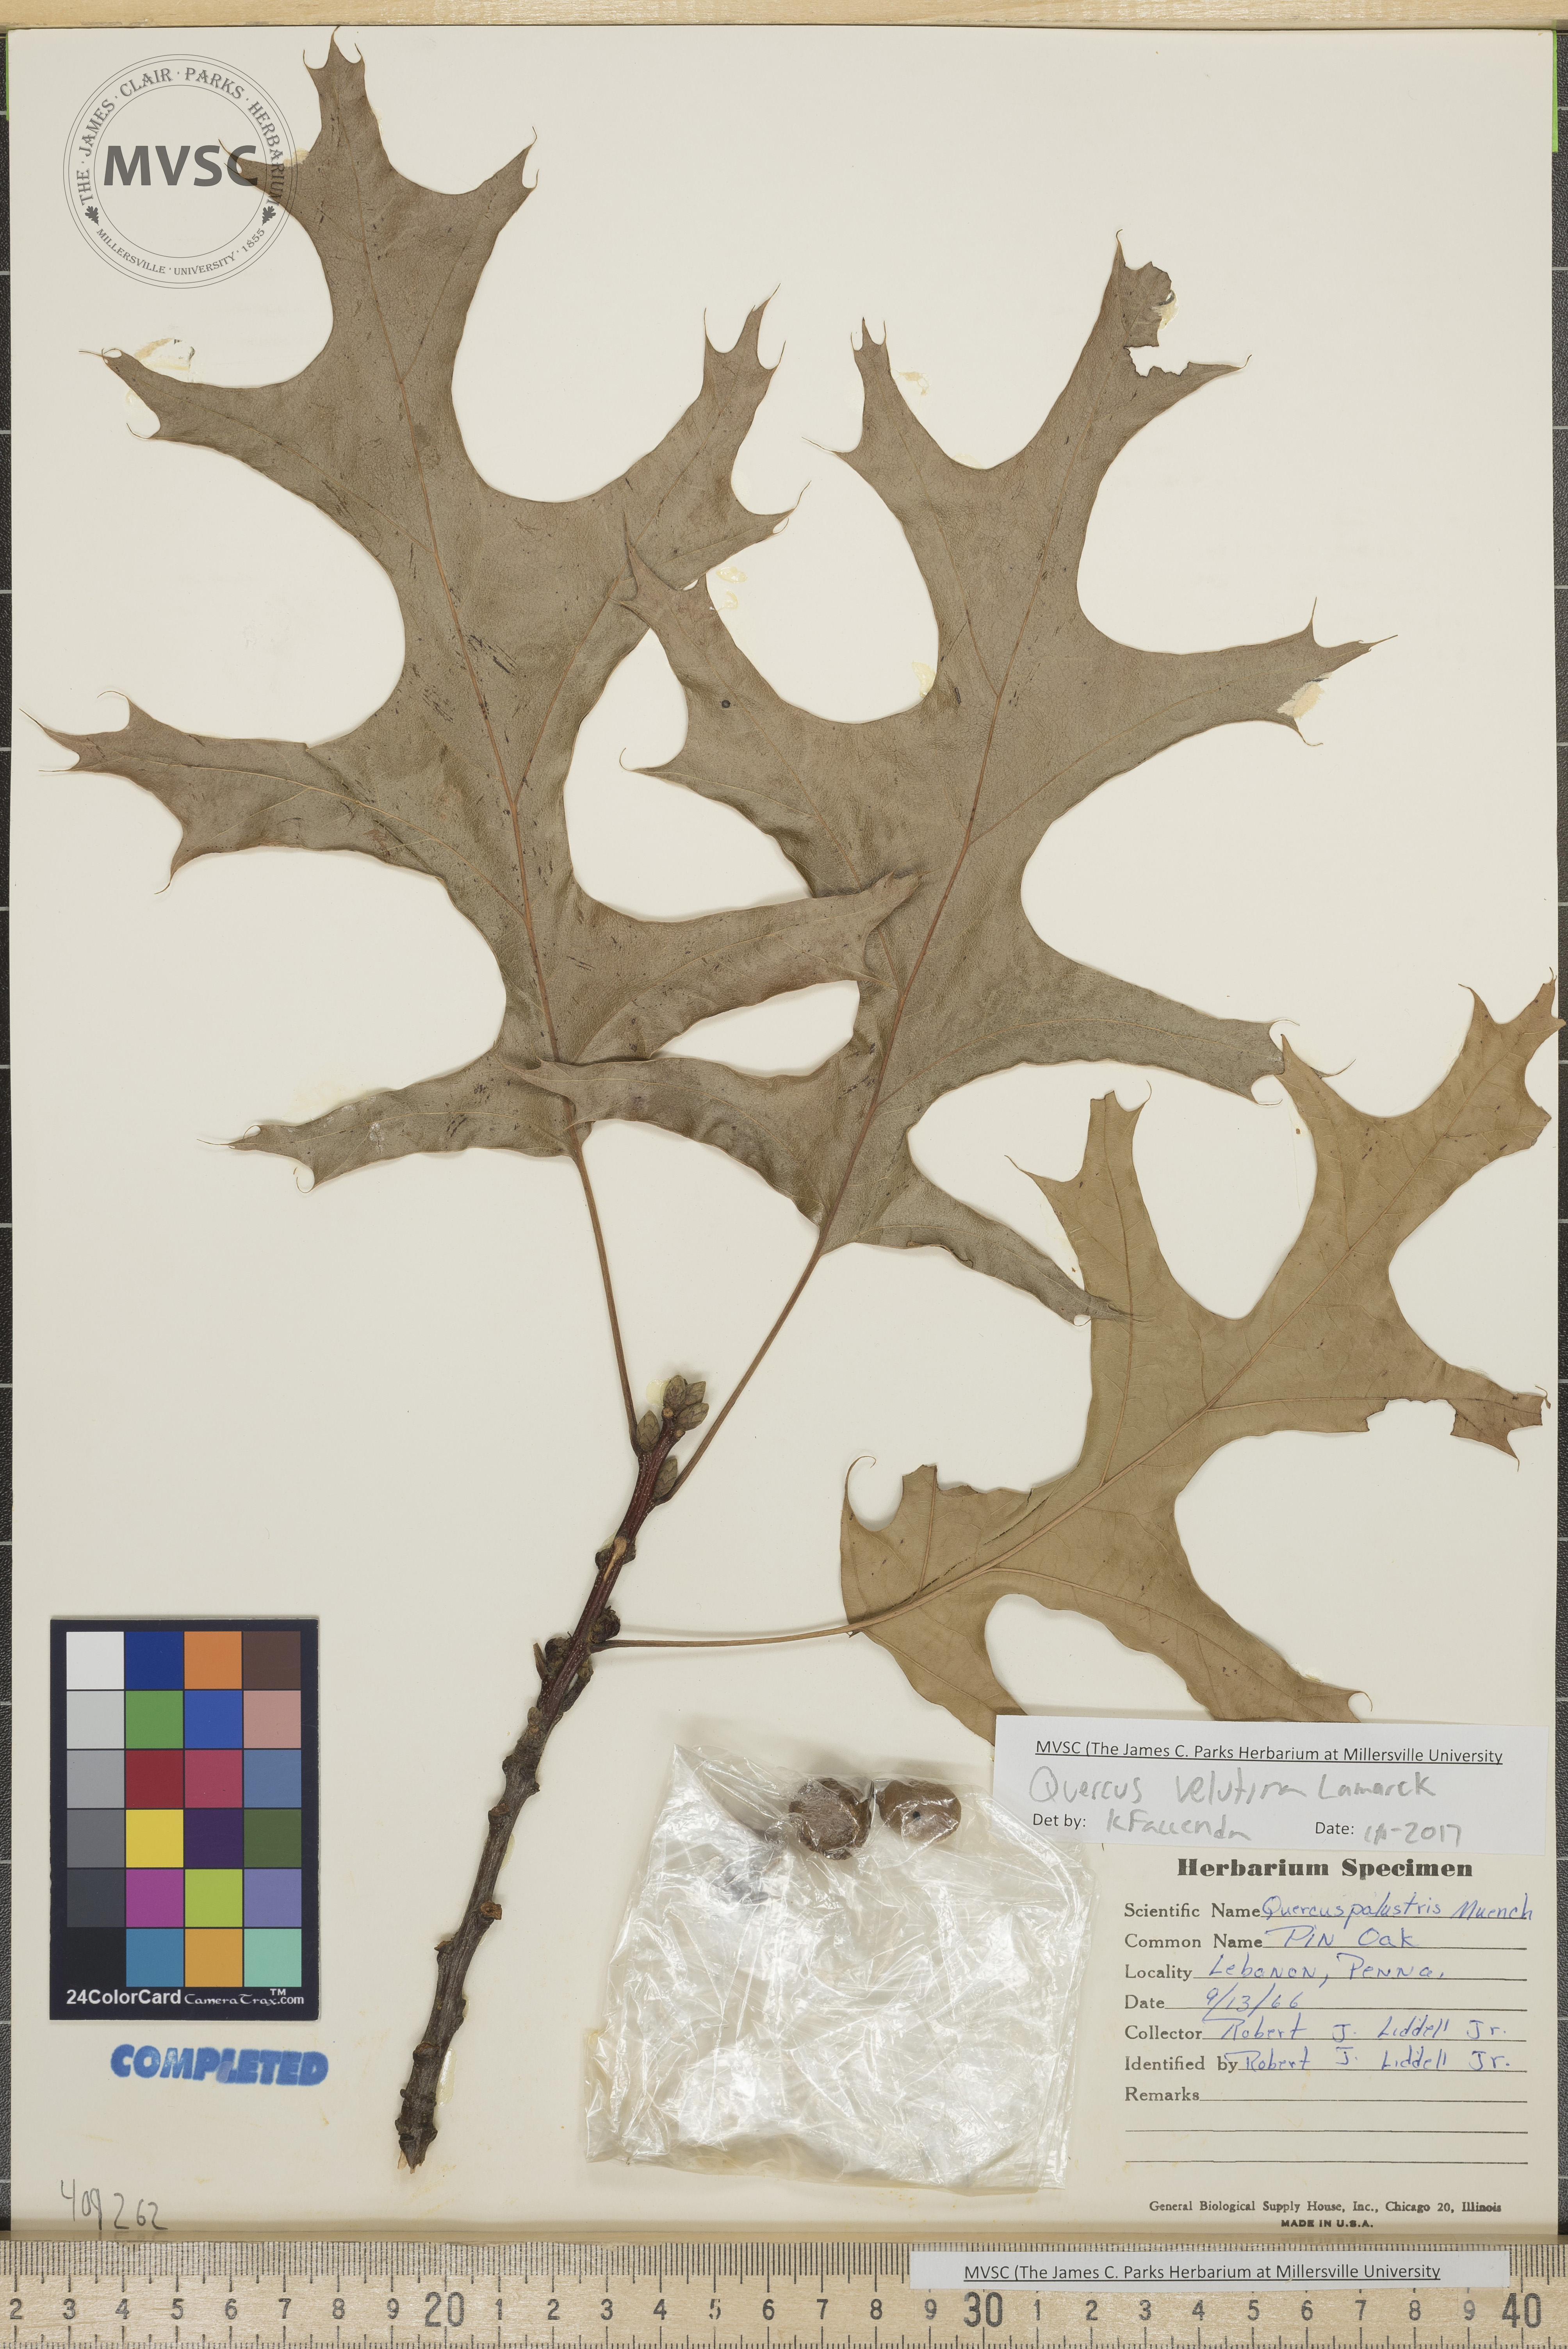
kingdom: Plantae
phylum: Tracheophyta
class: Magnoliopsida
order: Fagales
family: Fagaceae
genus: Quercus
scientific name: Quercus velutina
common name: Black oak
